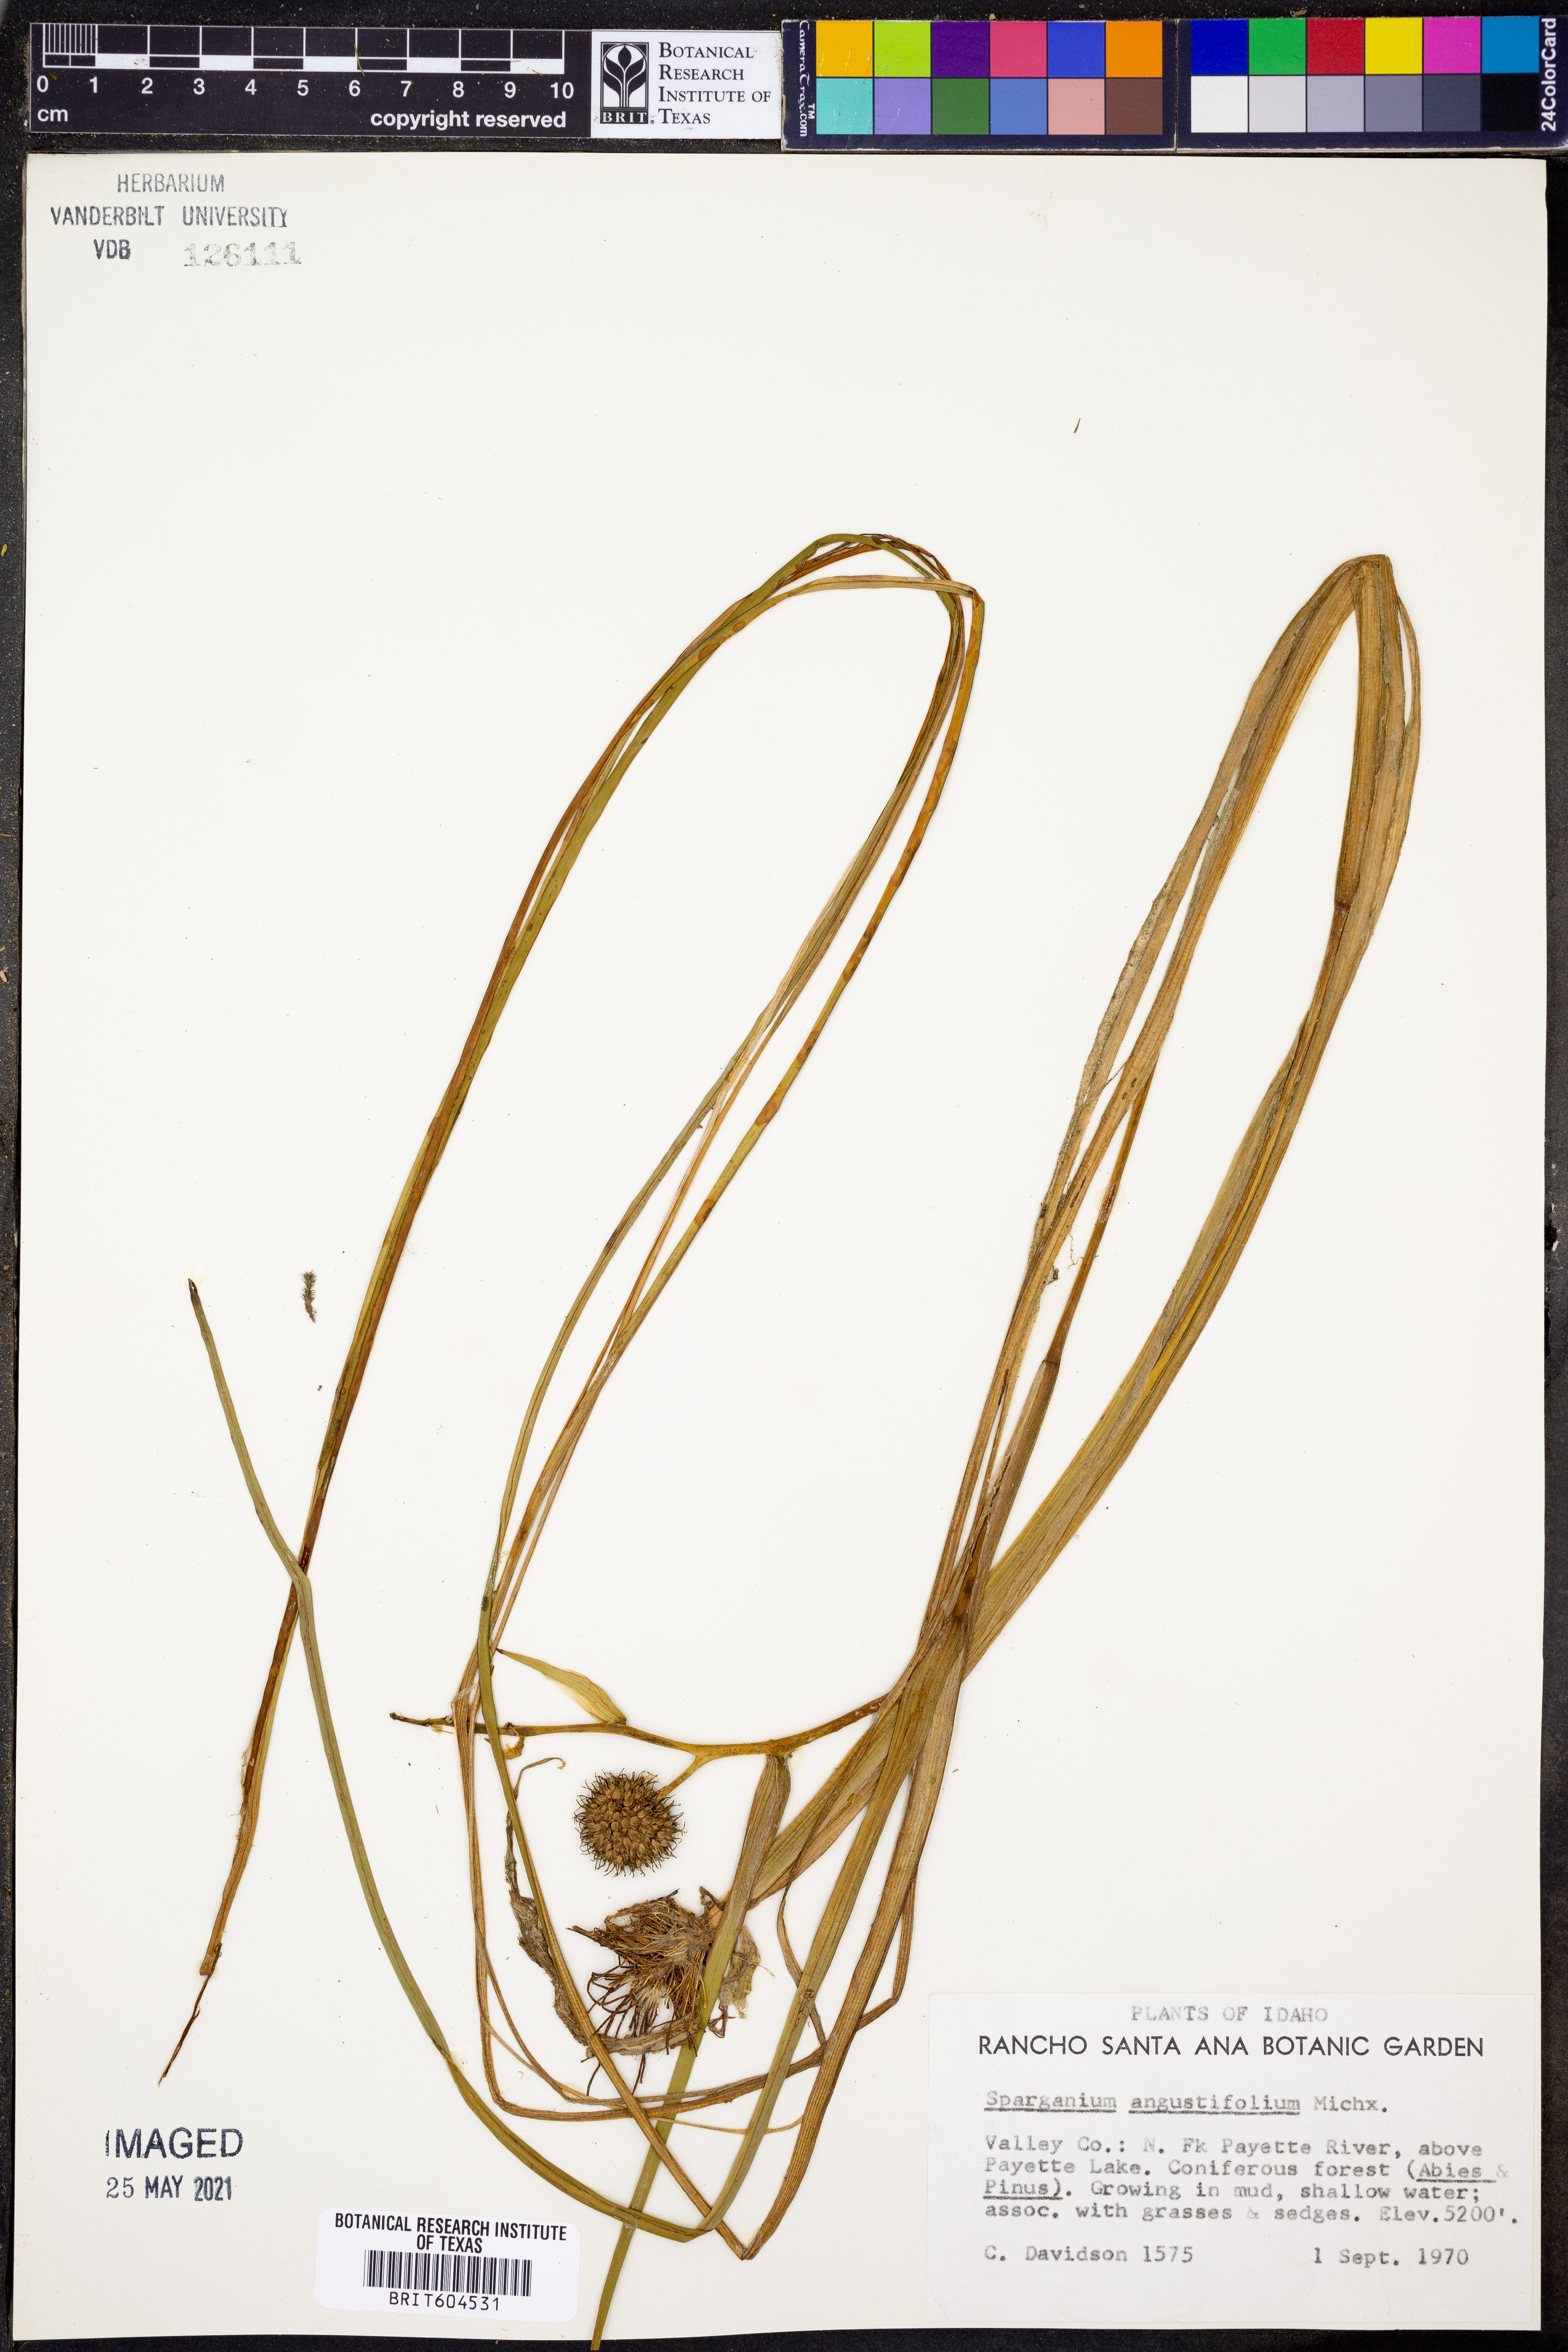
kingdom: Plantae
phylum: Tracheophyta
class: Liliopsida
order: Poales
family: Typhaceae
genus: Sparganium
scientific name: Sparganium angustifolium
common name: Floating bur-reed
